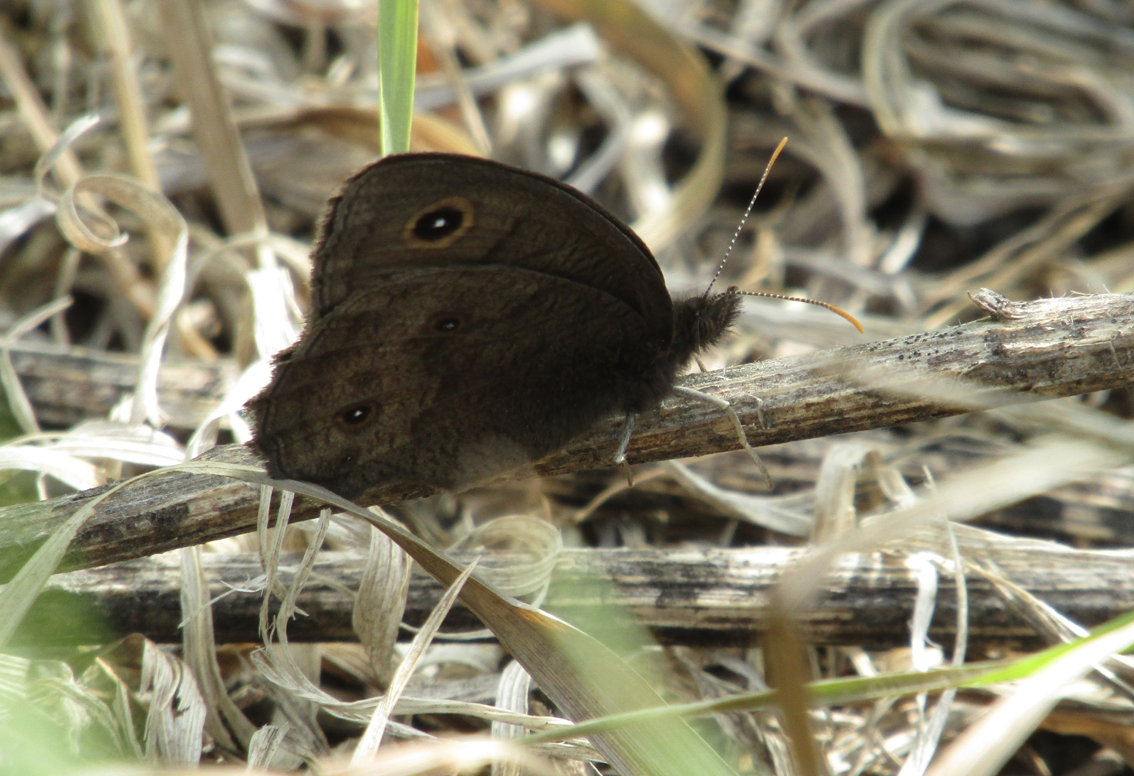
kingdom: Animalia
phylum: Arthropoda
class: Insecta
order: Lepidoptera
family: Nymphalidae
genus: Cercyonis
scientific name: Cercyonis pegala
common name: Common Wood-Nymph
